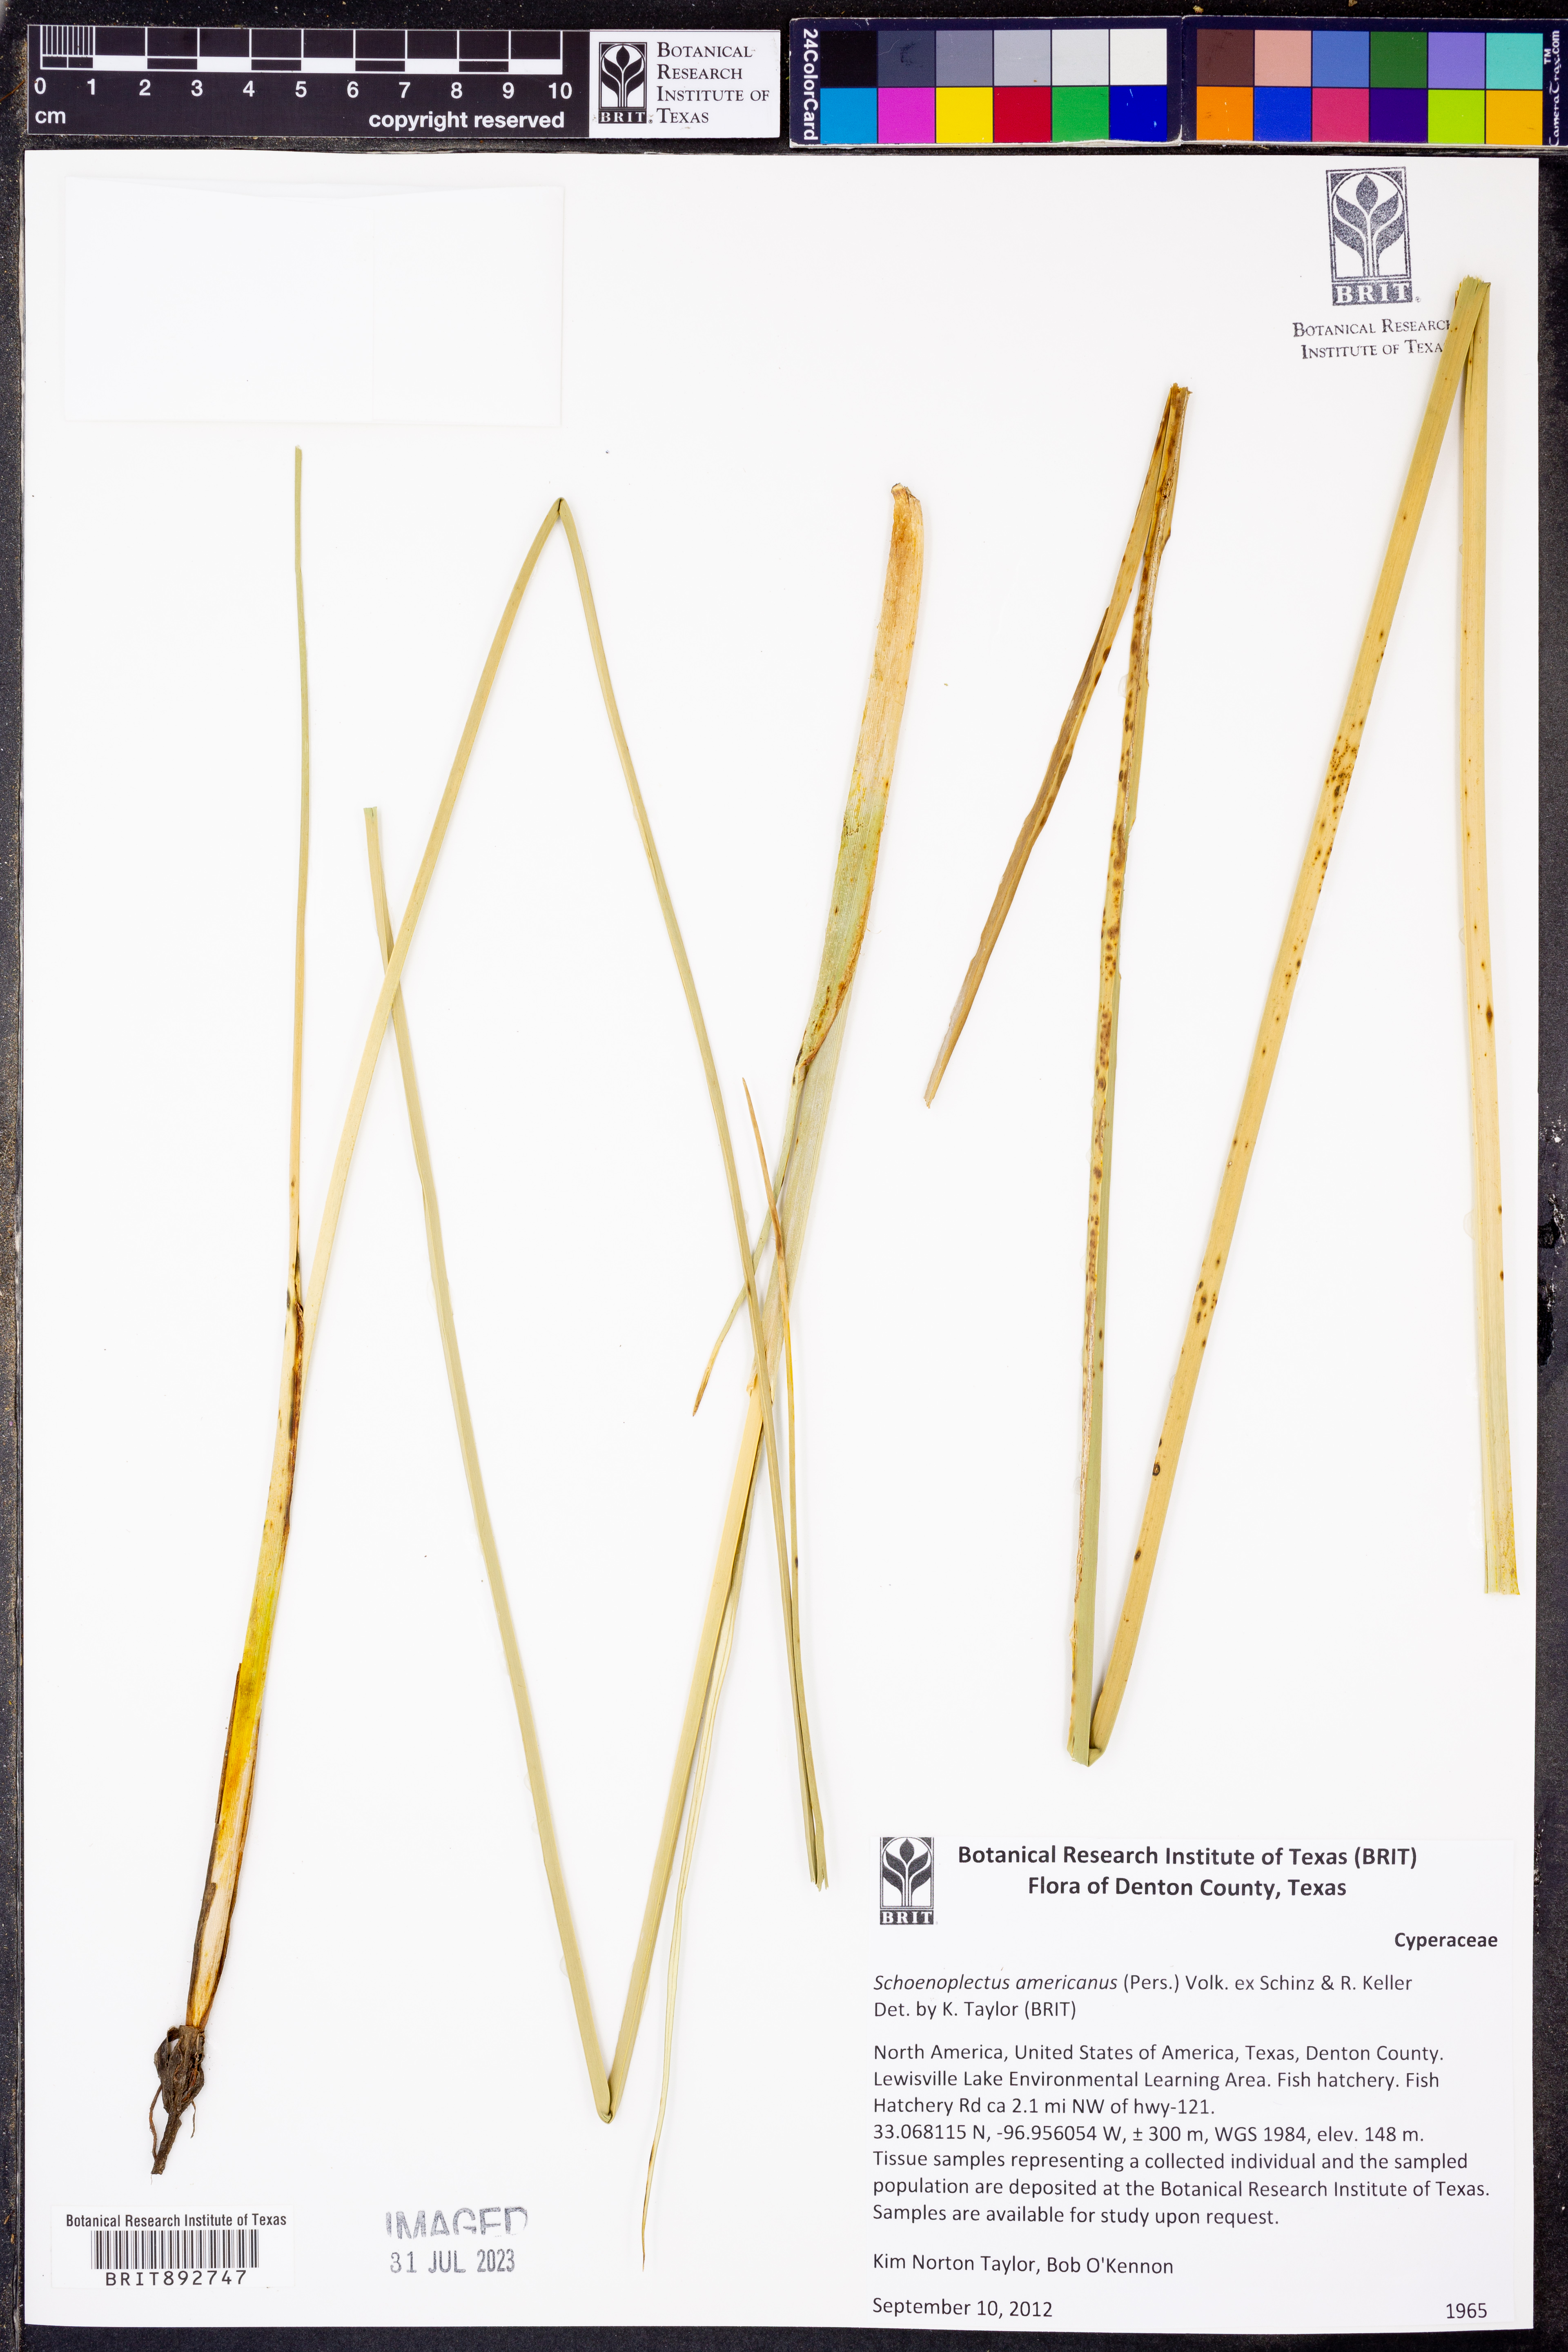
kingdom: Plantae
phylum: Tracheophyta
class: Liliopsida
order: Poales
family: Cyperaceae
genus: Schoenoplectus
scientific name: Schoenoplectus americanus
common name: American three-square bulrush
